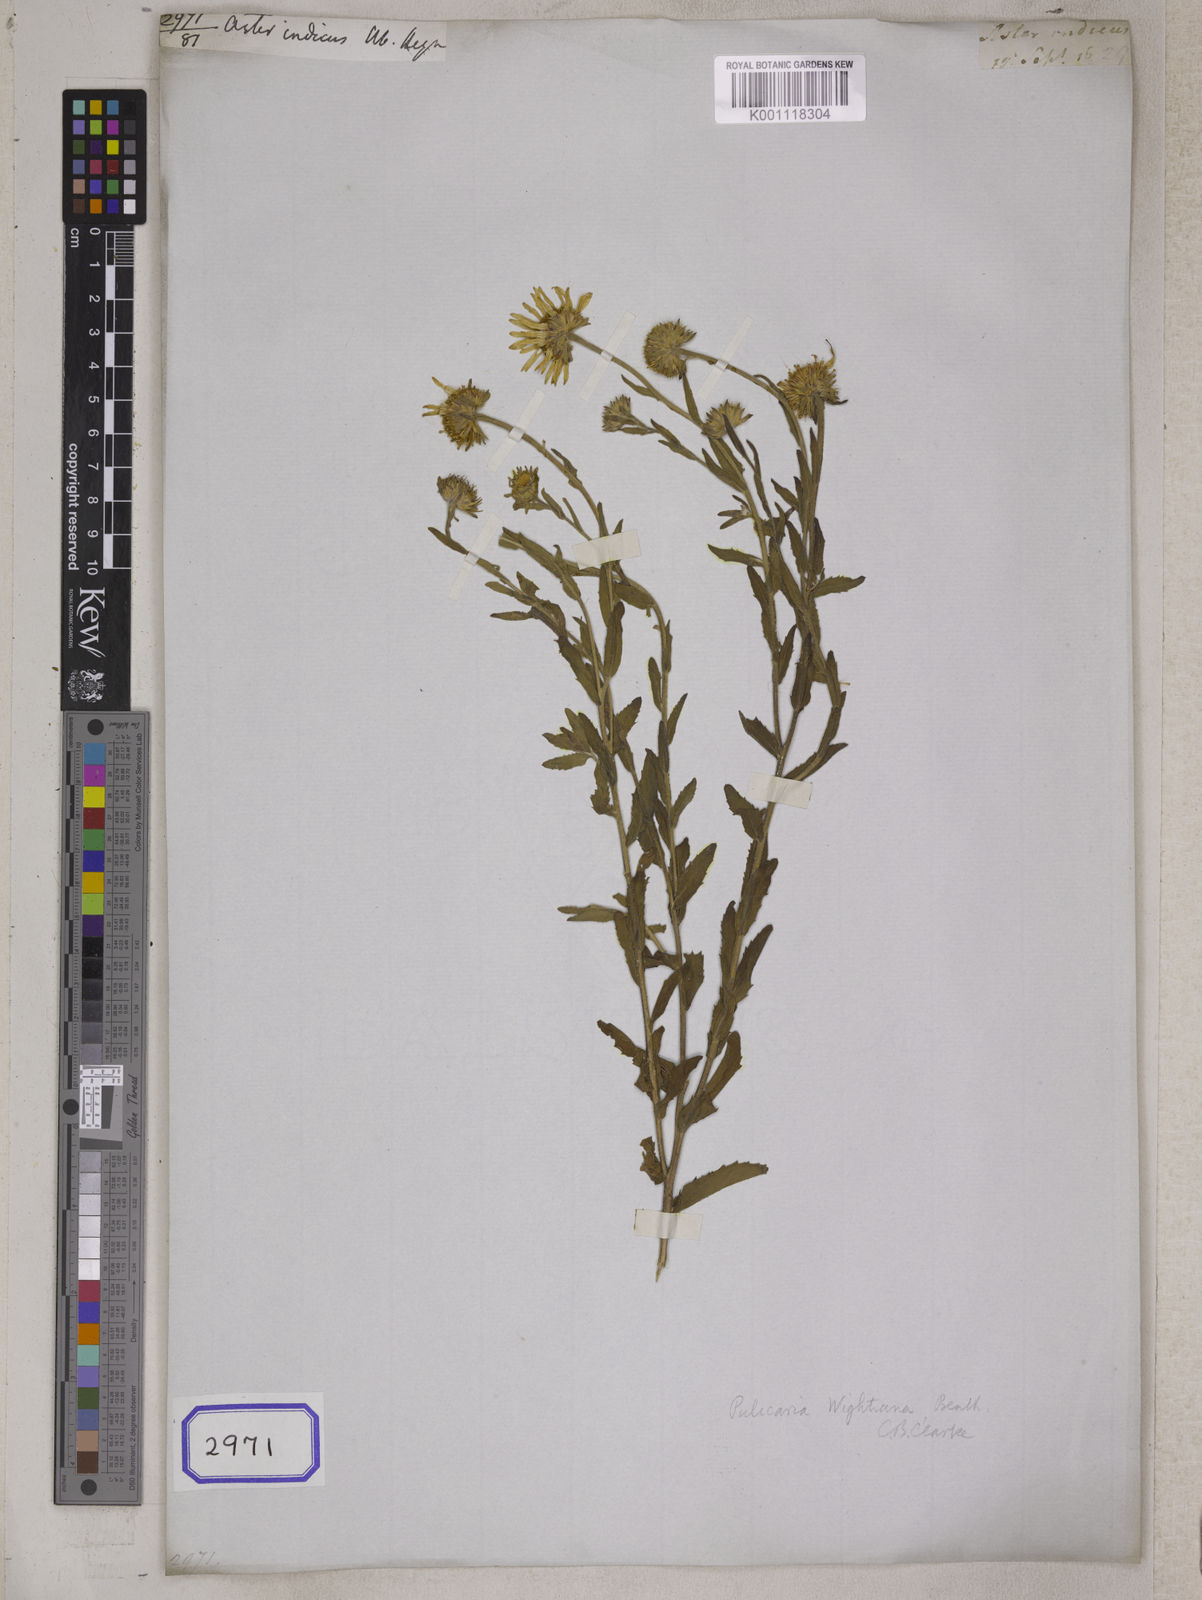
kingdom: Plantae
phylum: Tracheophyta
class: Magnoliopsida
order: Asterales
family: Asteraceae
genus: Pulicaria
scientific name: Pulicaria wightiana
